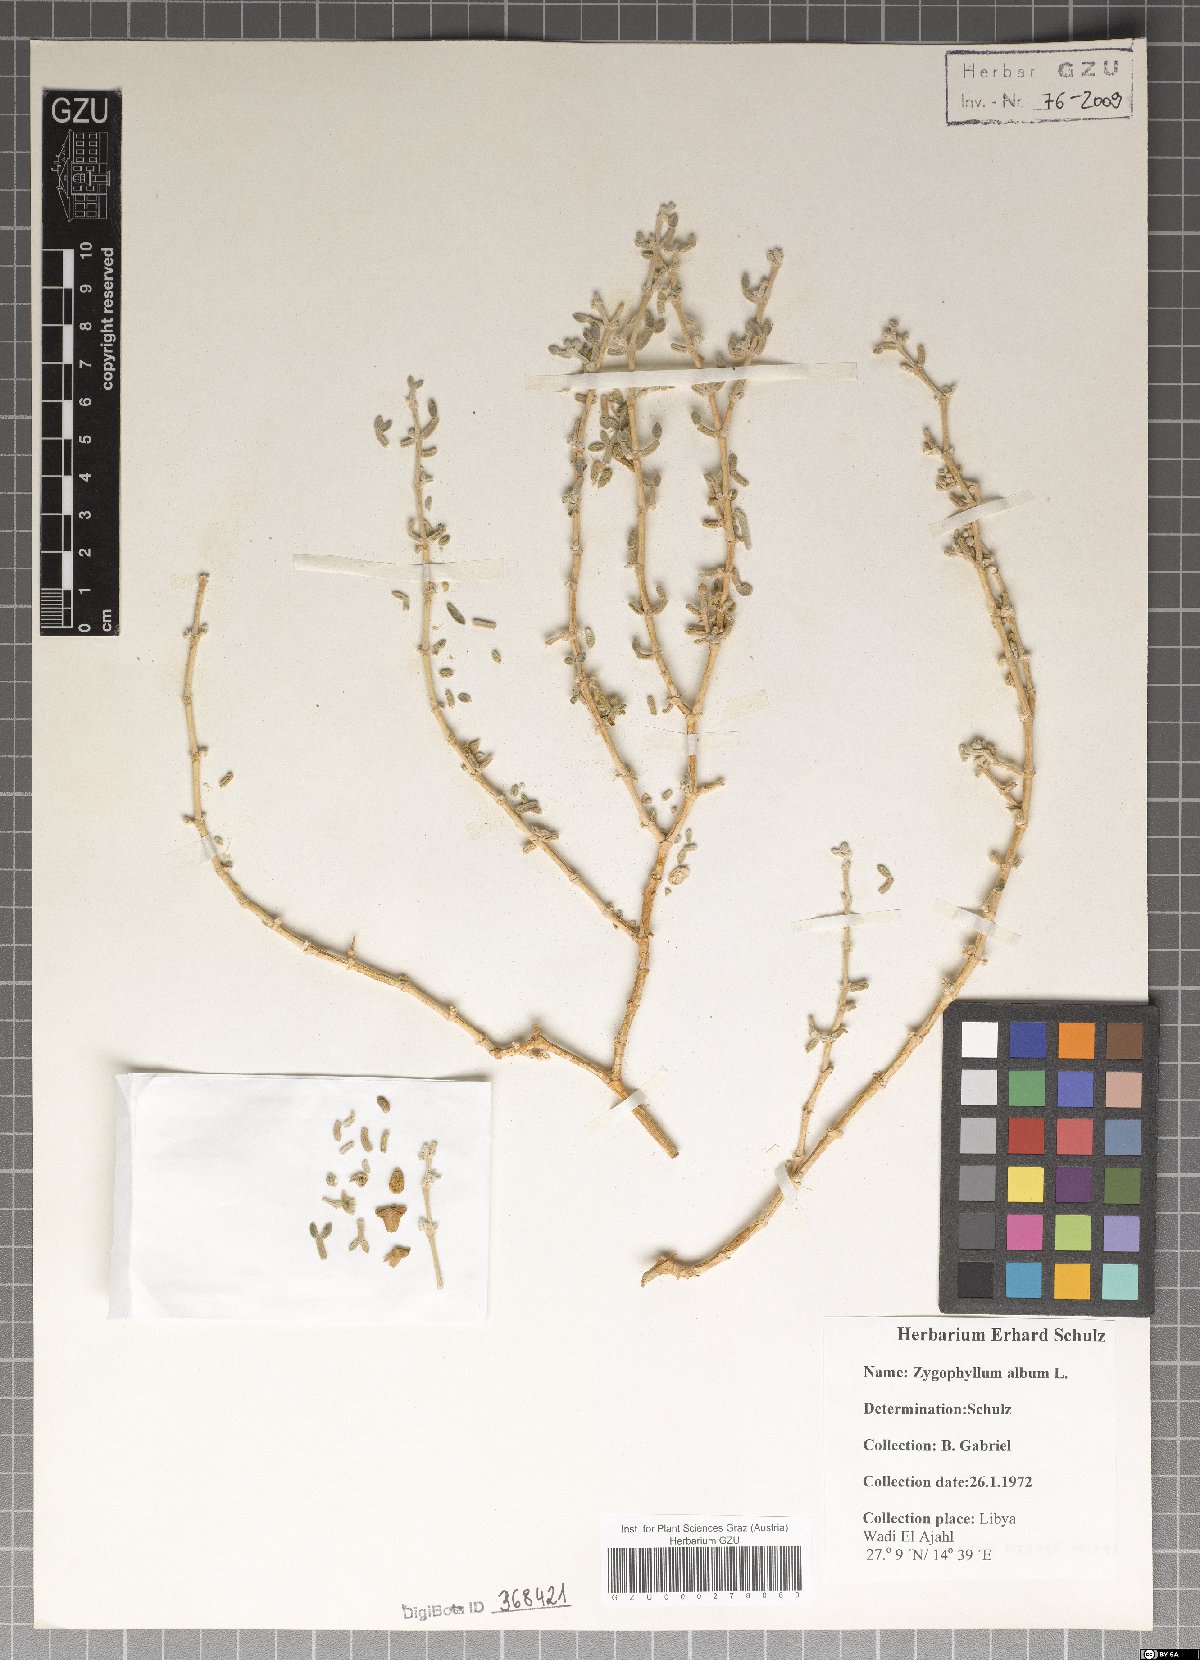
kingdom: Plantae
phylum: Tracheophyta
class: Magnoliopsida
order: Zygophyllales
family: Zygophyllaceae
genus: Tetraena
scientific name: Tetraena alba
